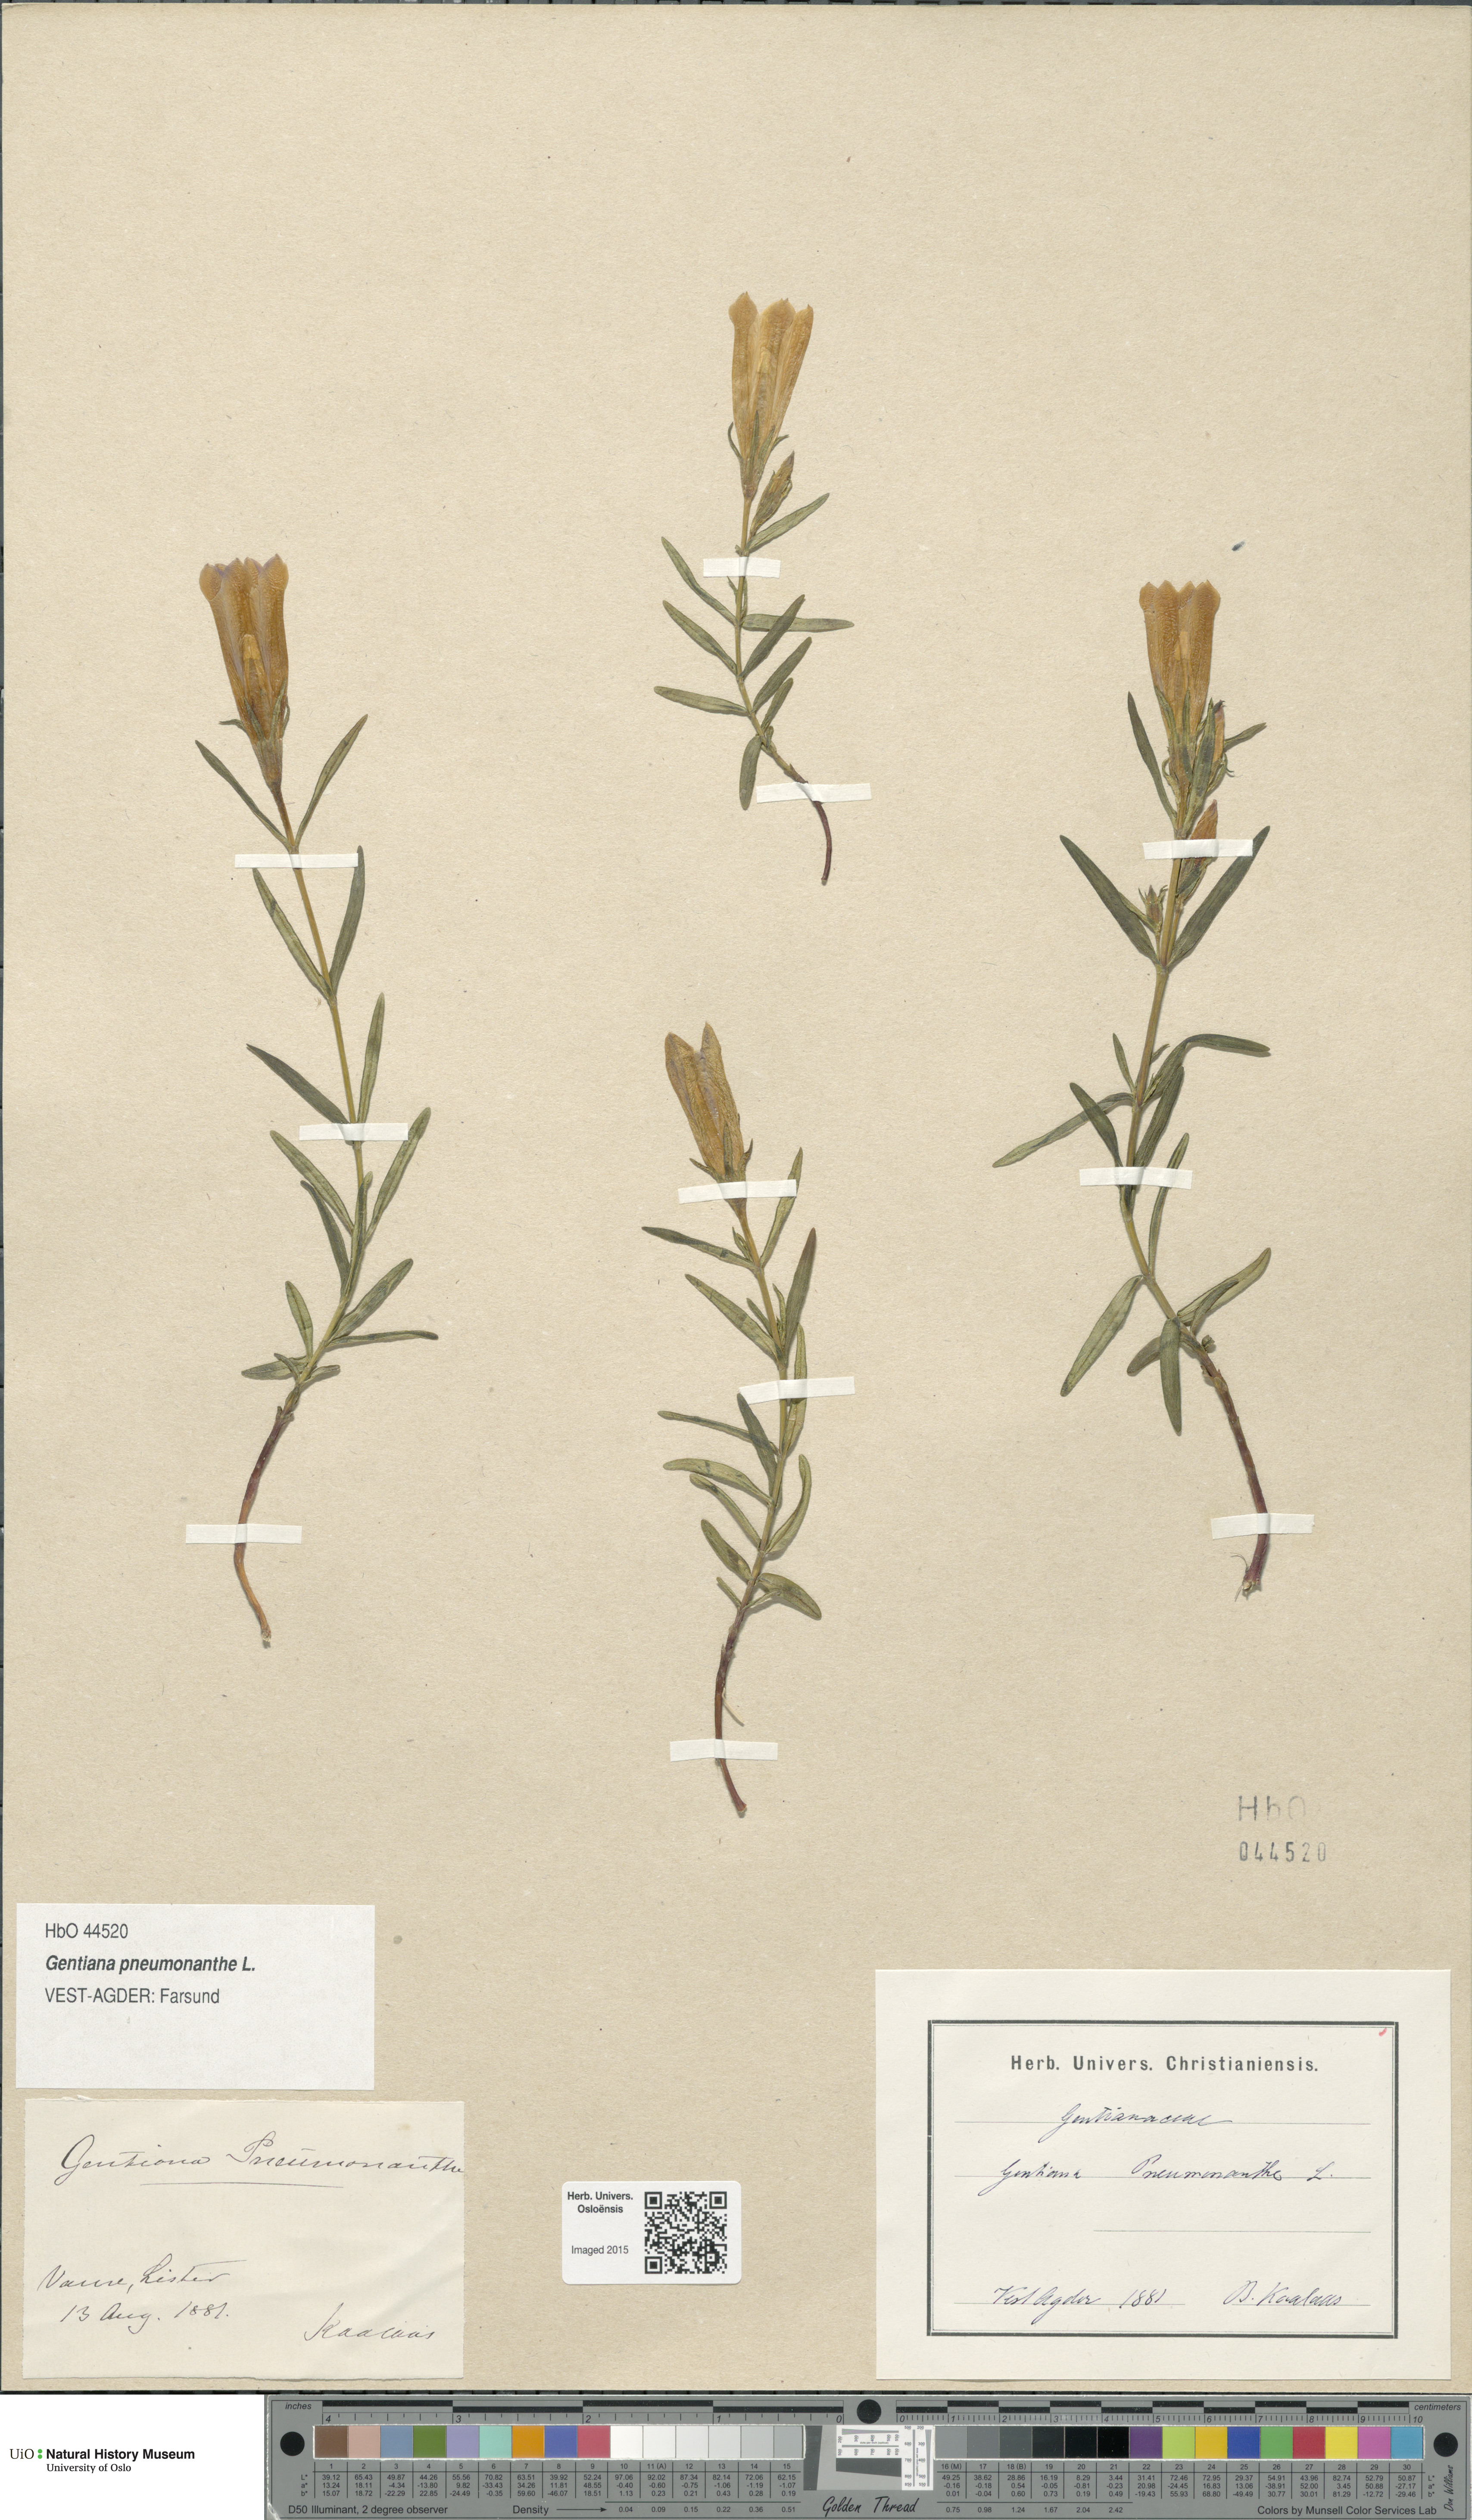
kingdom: Plantae
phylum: Tracheophyta
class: Magnoliopsida
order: Gentianales
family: Gentianaceae
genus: Gentiana
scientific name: Gentiana pneumonanthe
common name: Marsh gentian
